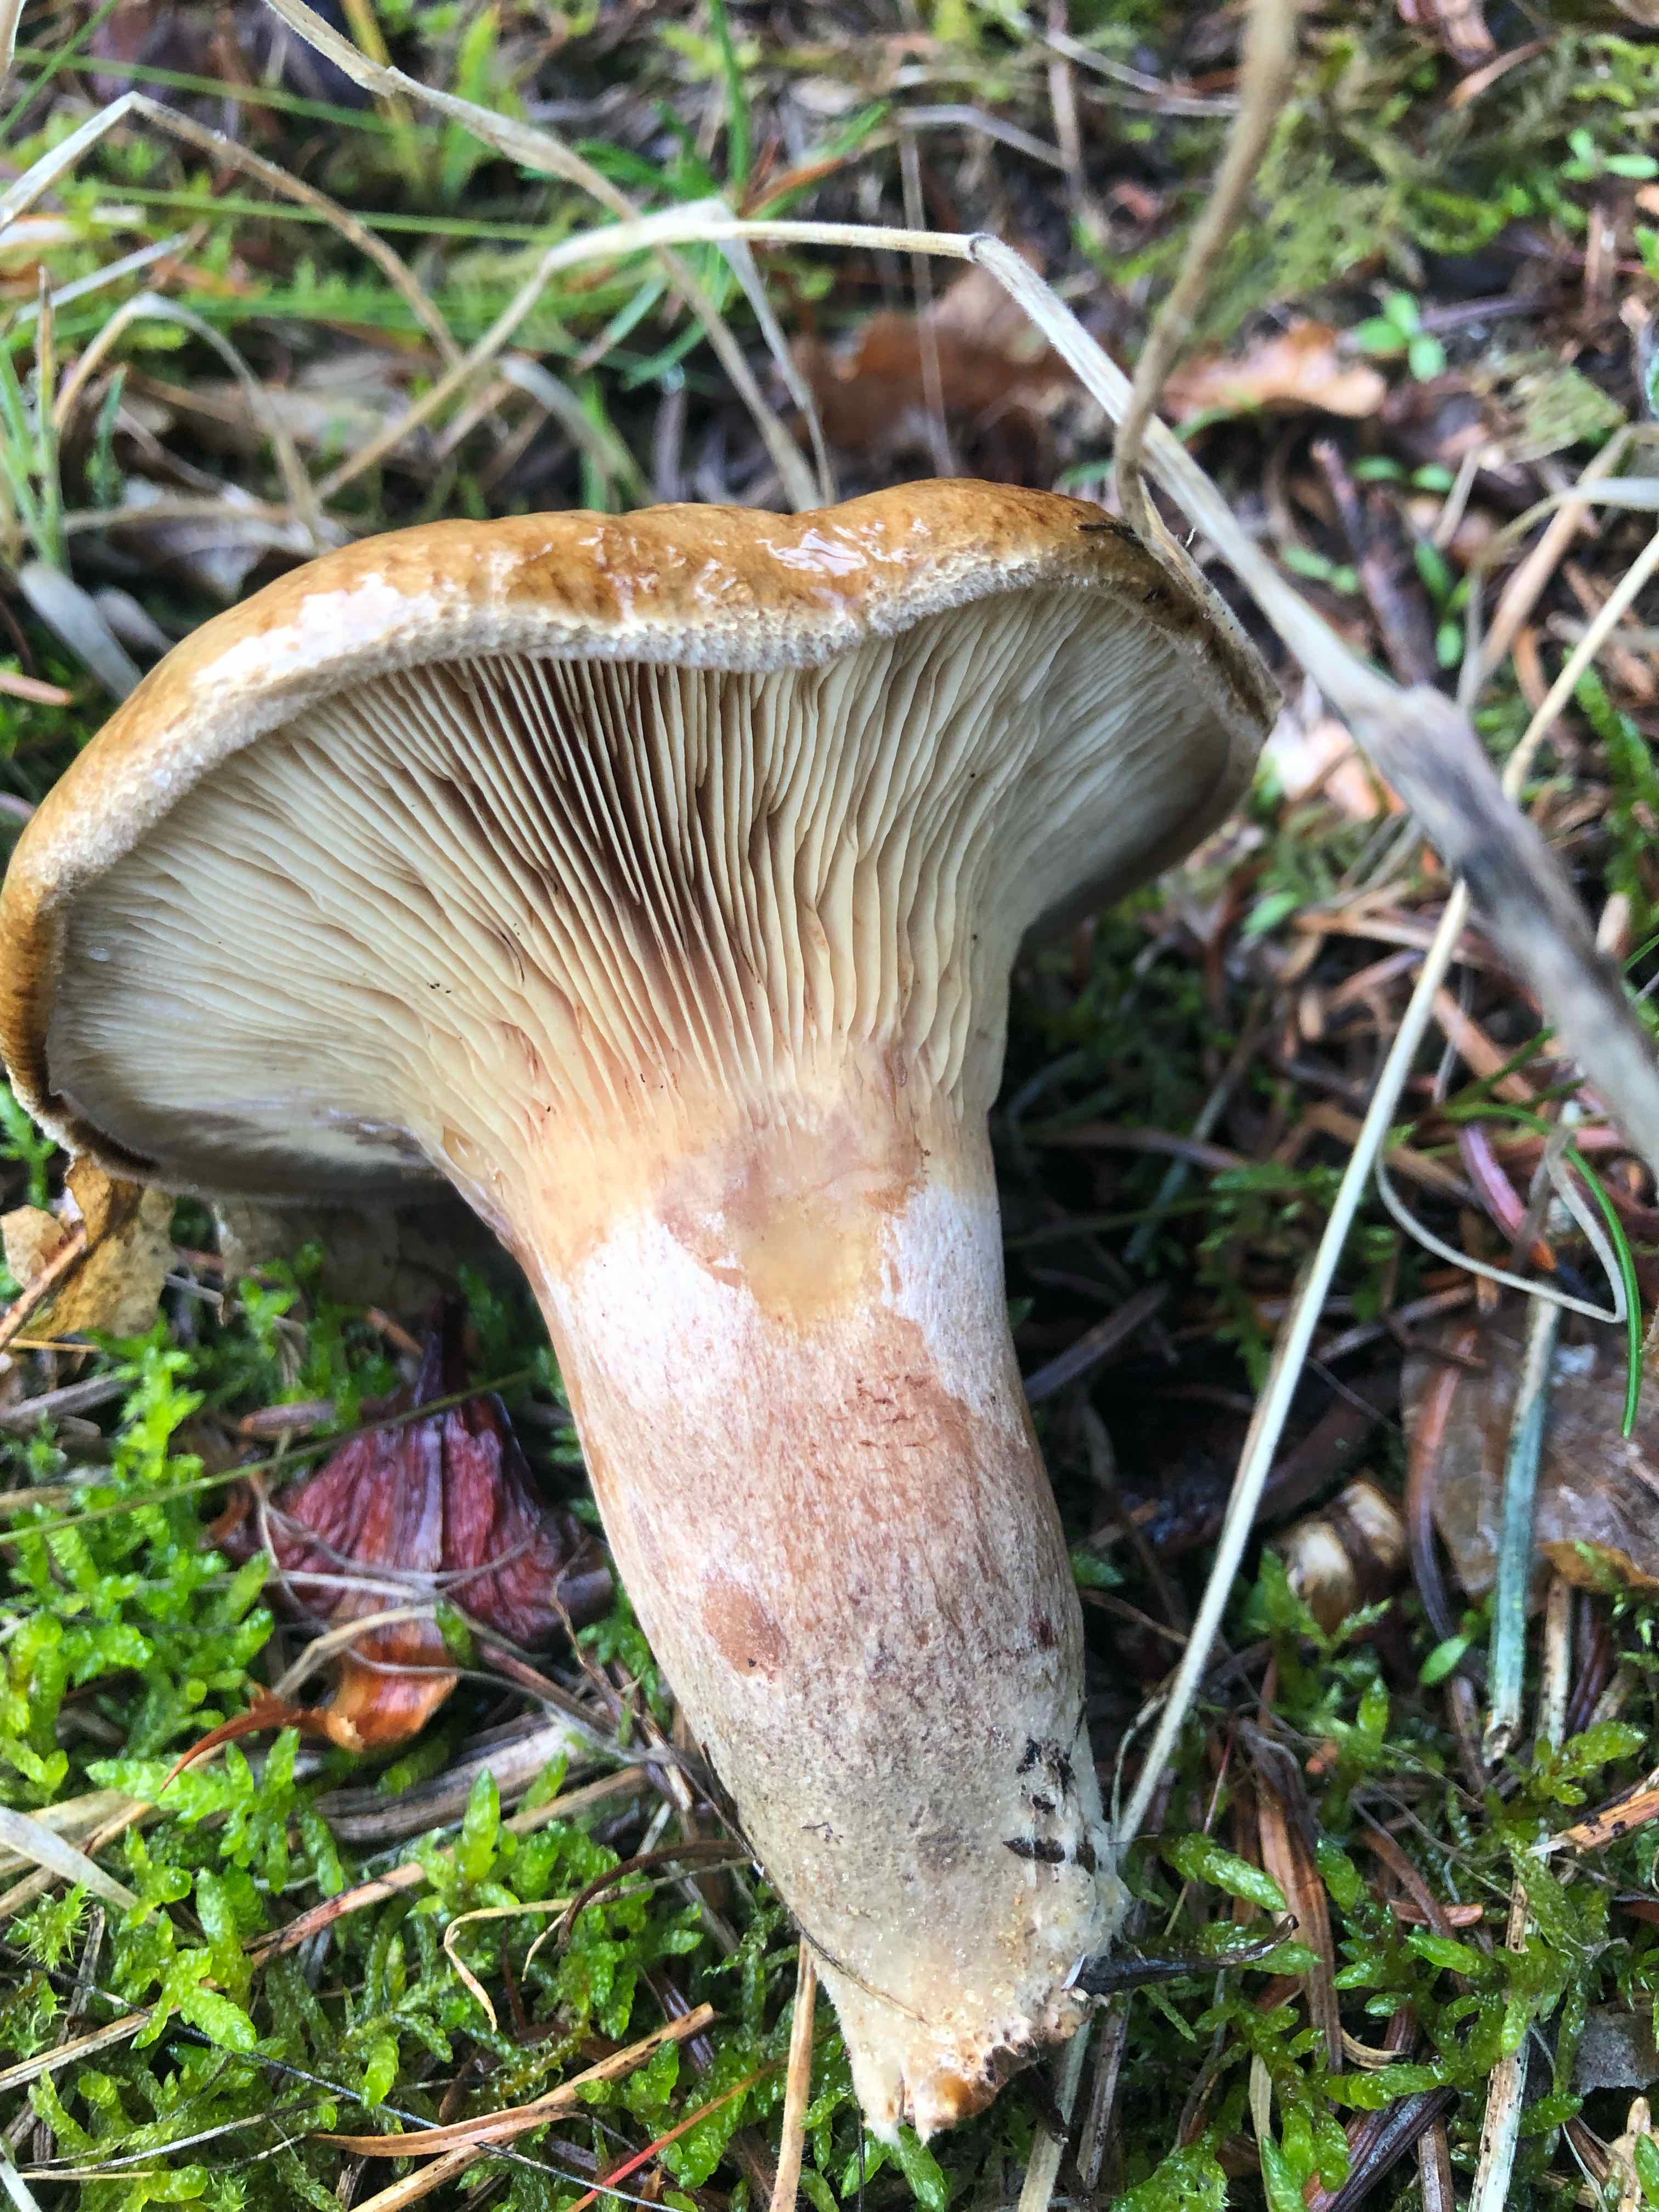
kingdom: Fungi
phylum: Basidiomycota
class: Agaricomycetes
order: Boletales
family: Paxillaceae
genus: Paxillus
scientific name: Paxillus involutus
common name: almindelig netbladhat
